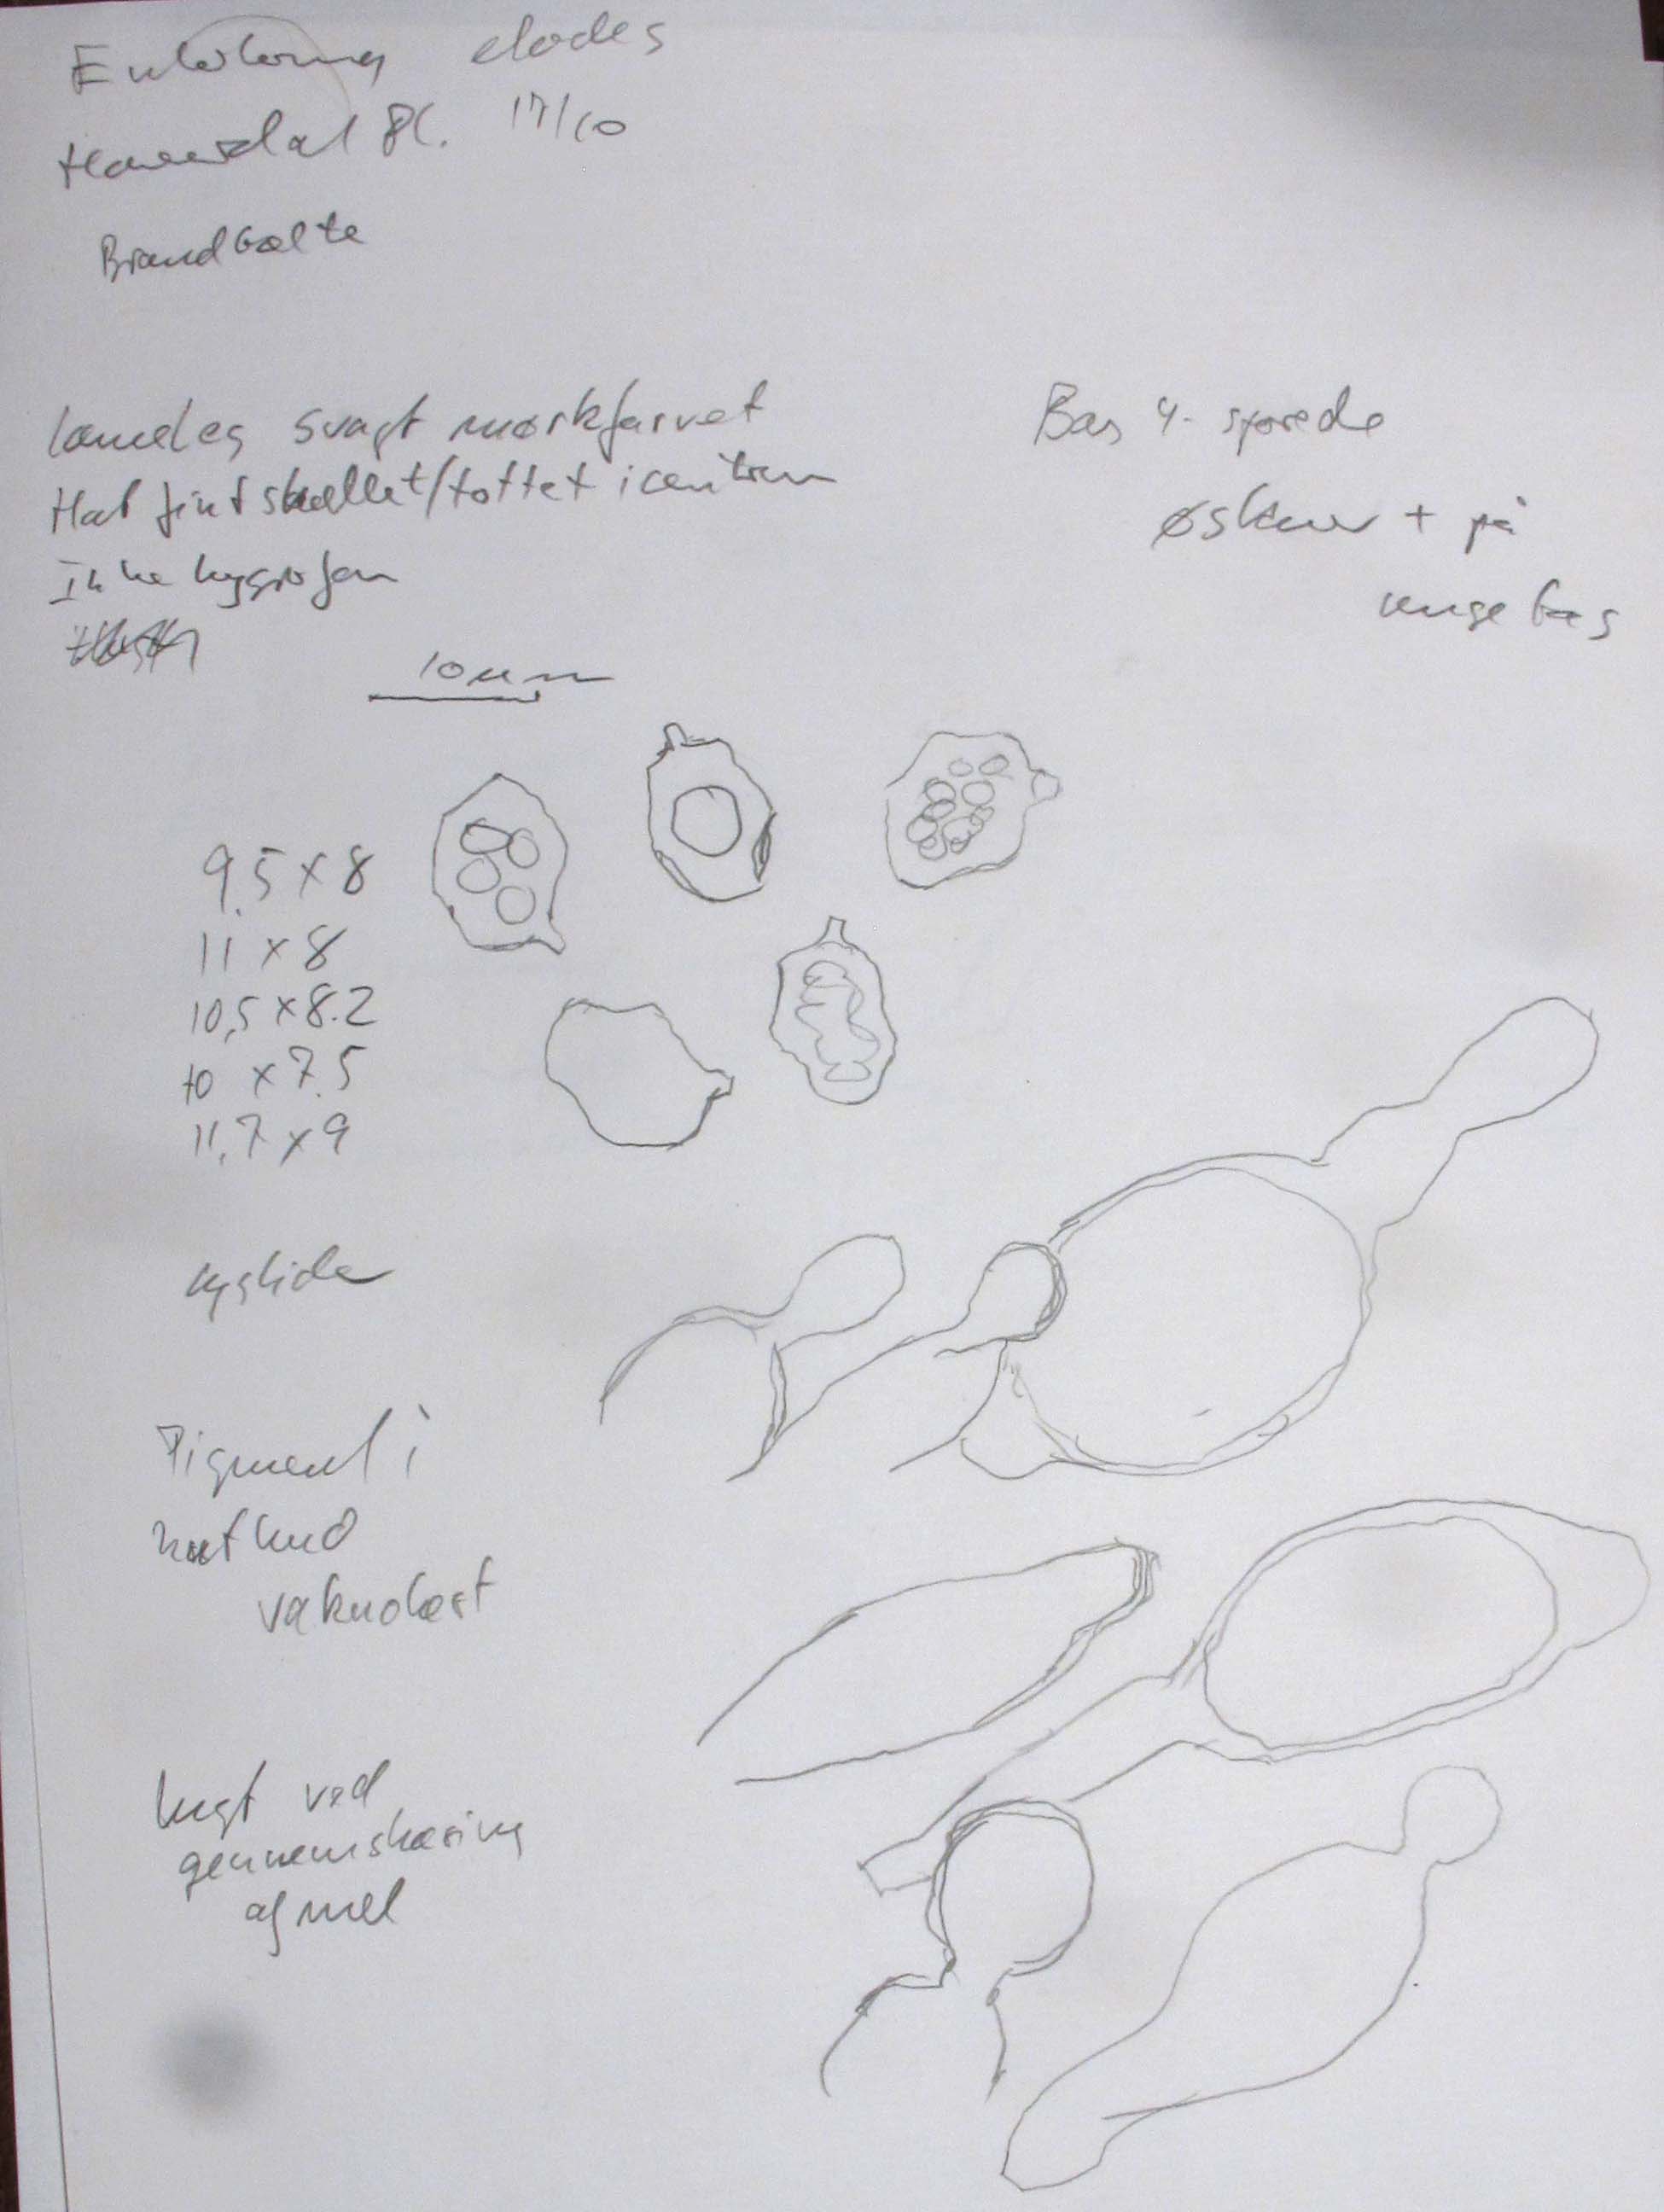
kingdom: Fungi
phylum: Basidiomycota
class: Agaricomycetes
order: Agaricales
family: Entolomataceae
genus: Entoloma
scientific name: Entoloma elodes
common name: mørkægget rødblad
